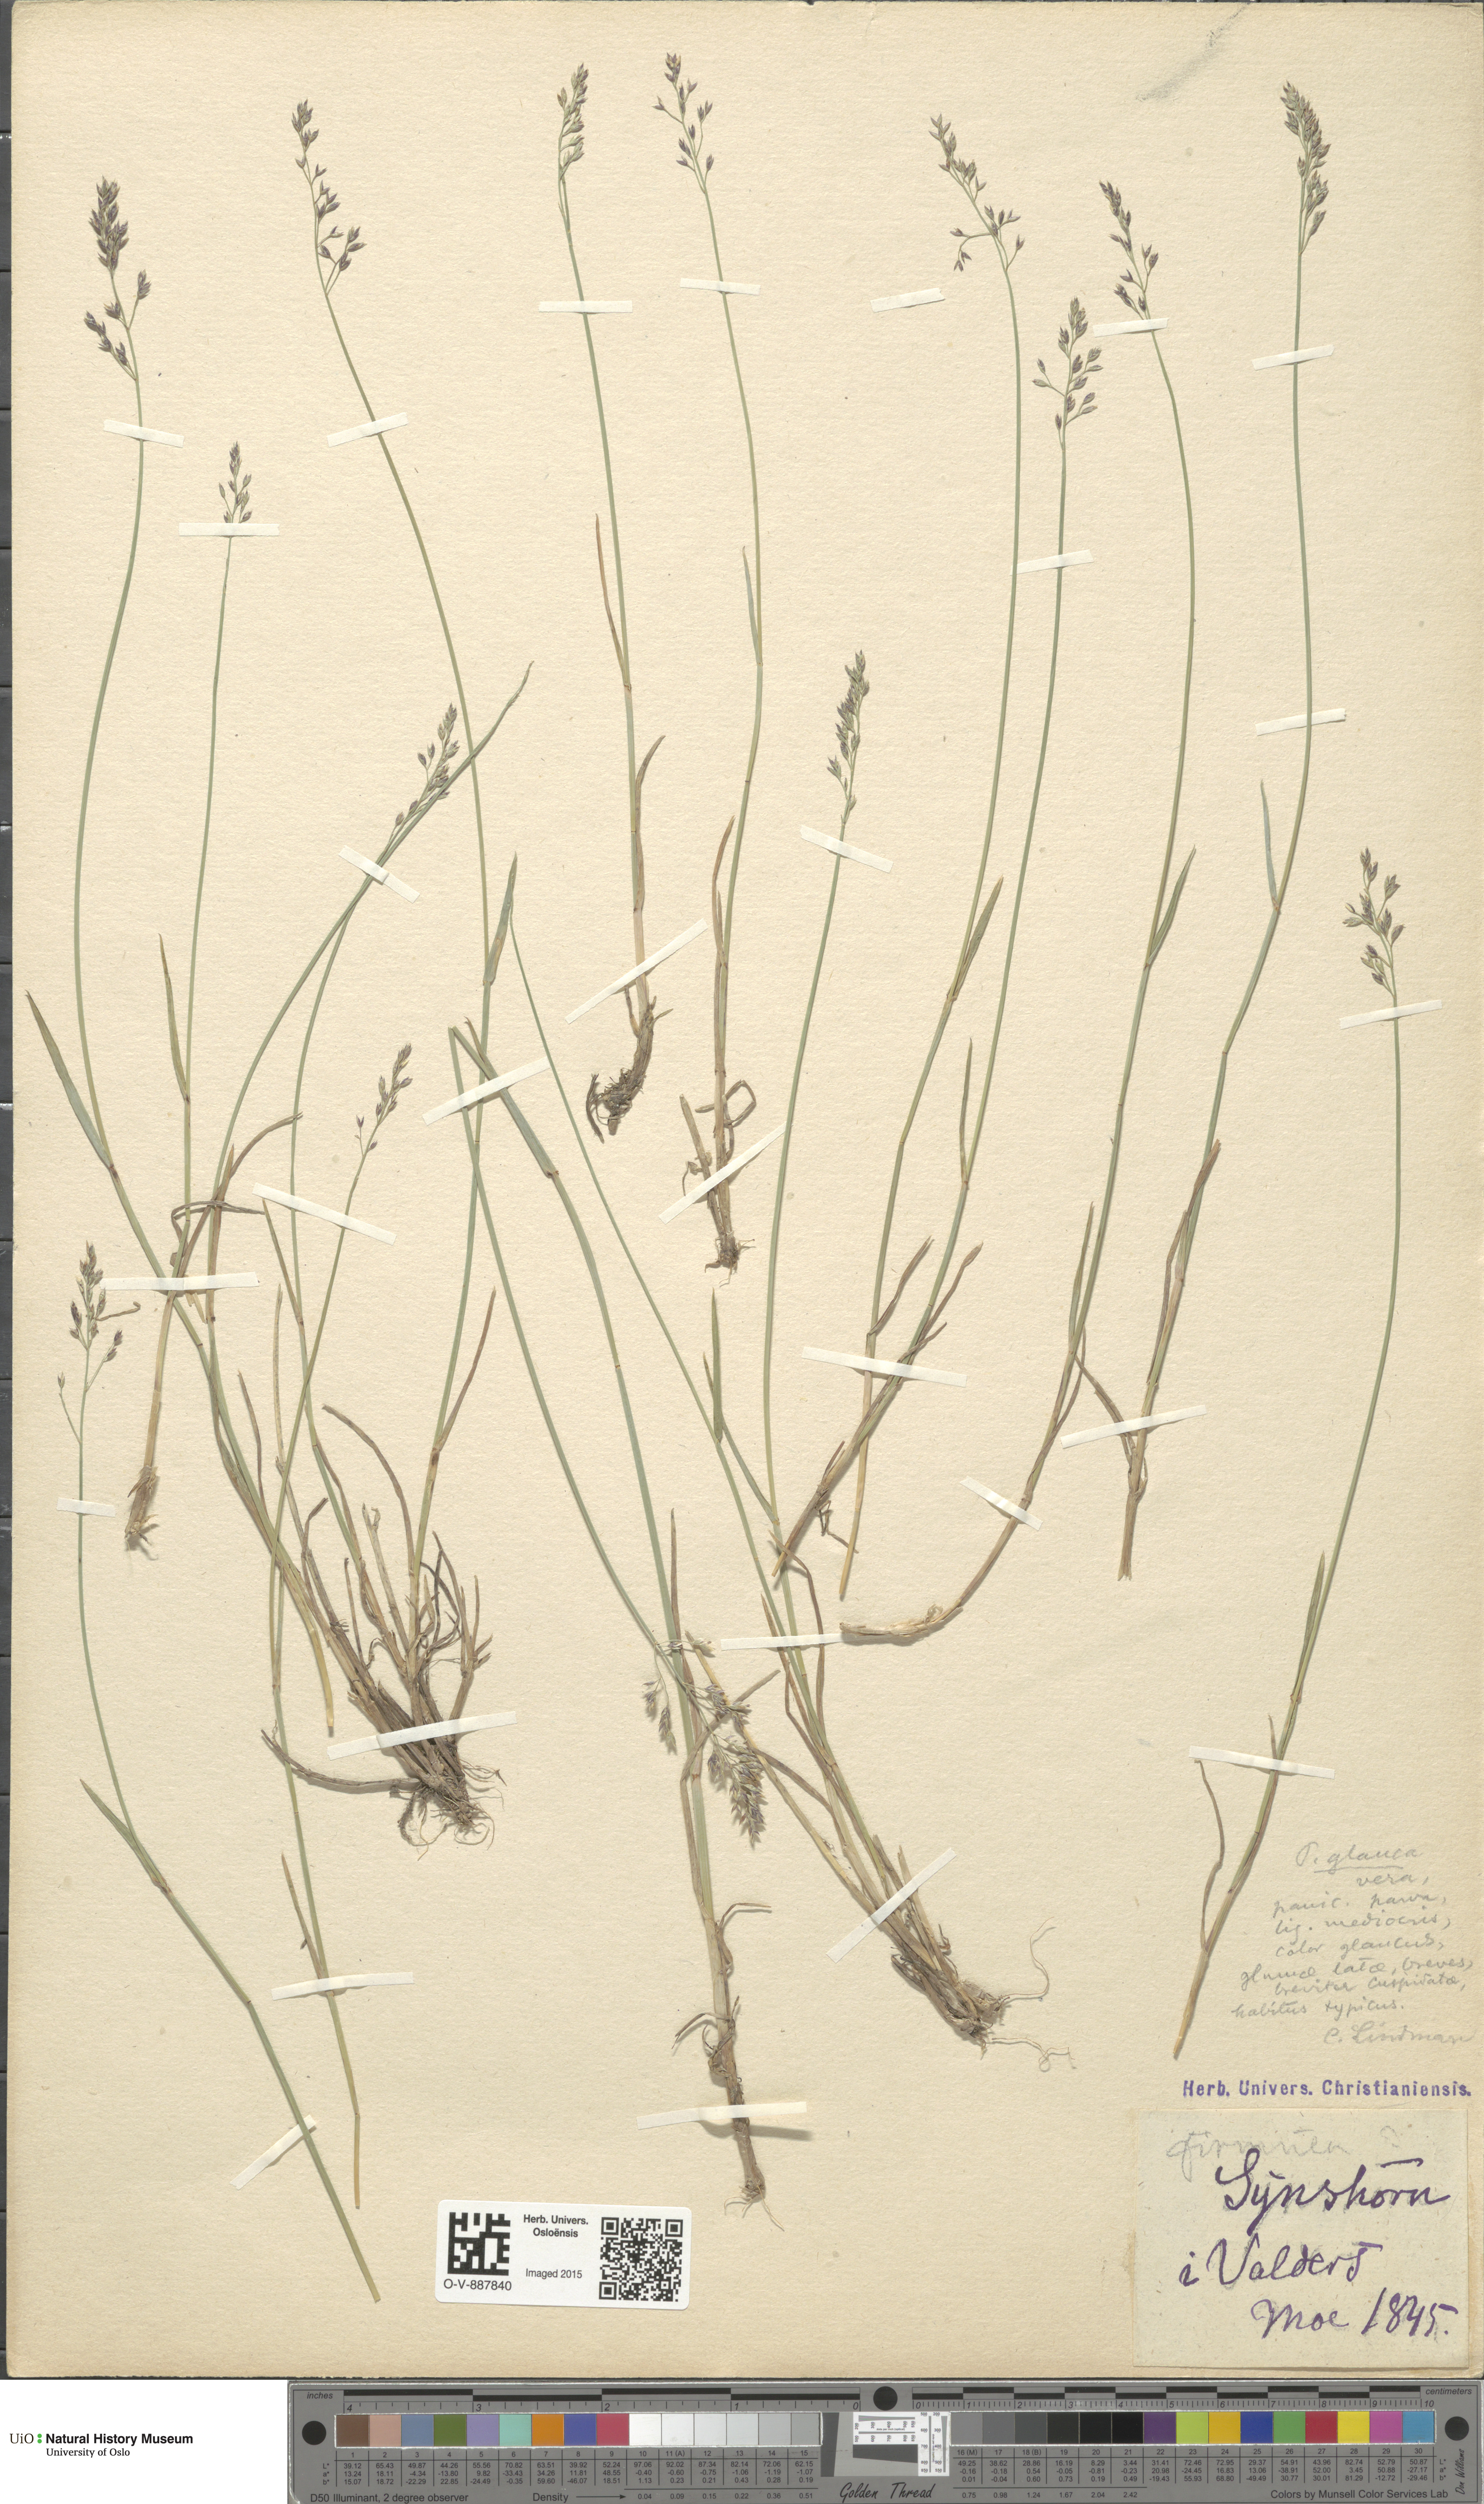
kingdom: Plantae
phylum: Tracheophyta
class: Liliopsida
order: Poales
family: Poaceae
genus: Poa
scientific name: Poa glauca
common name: Glaucous bluegrass
